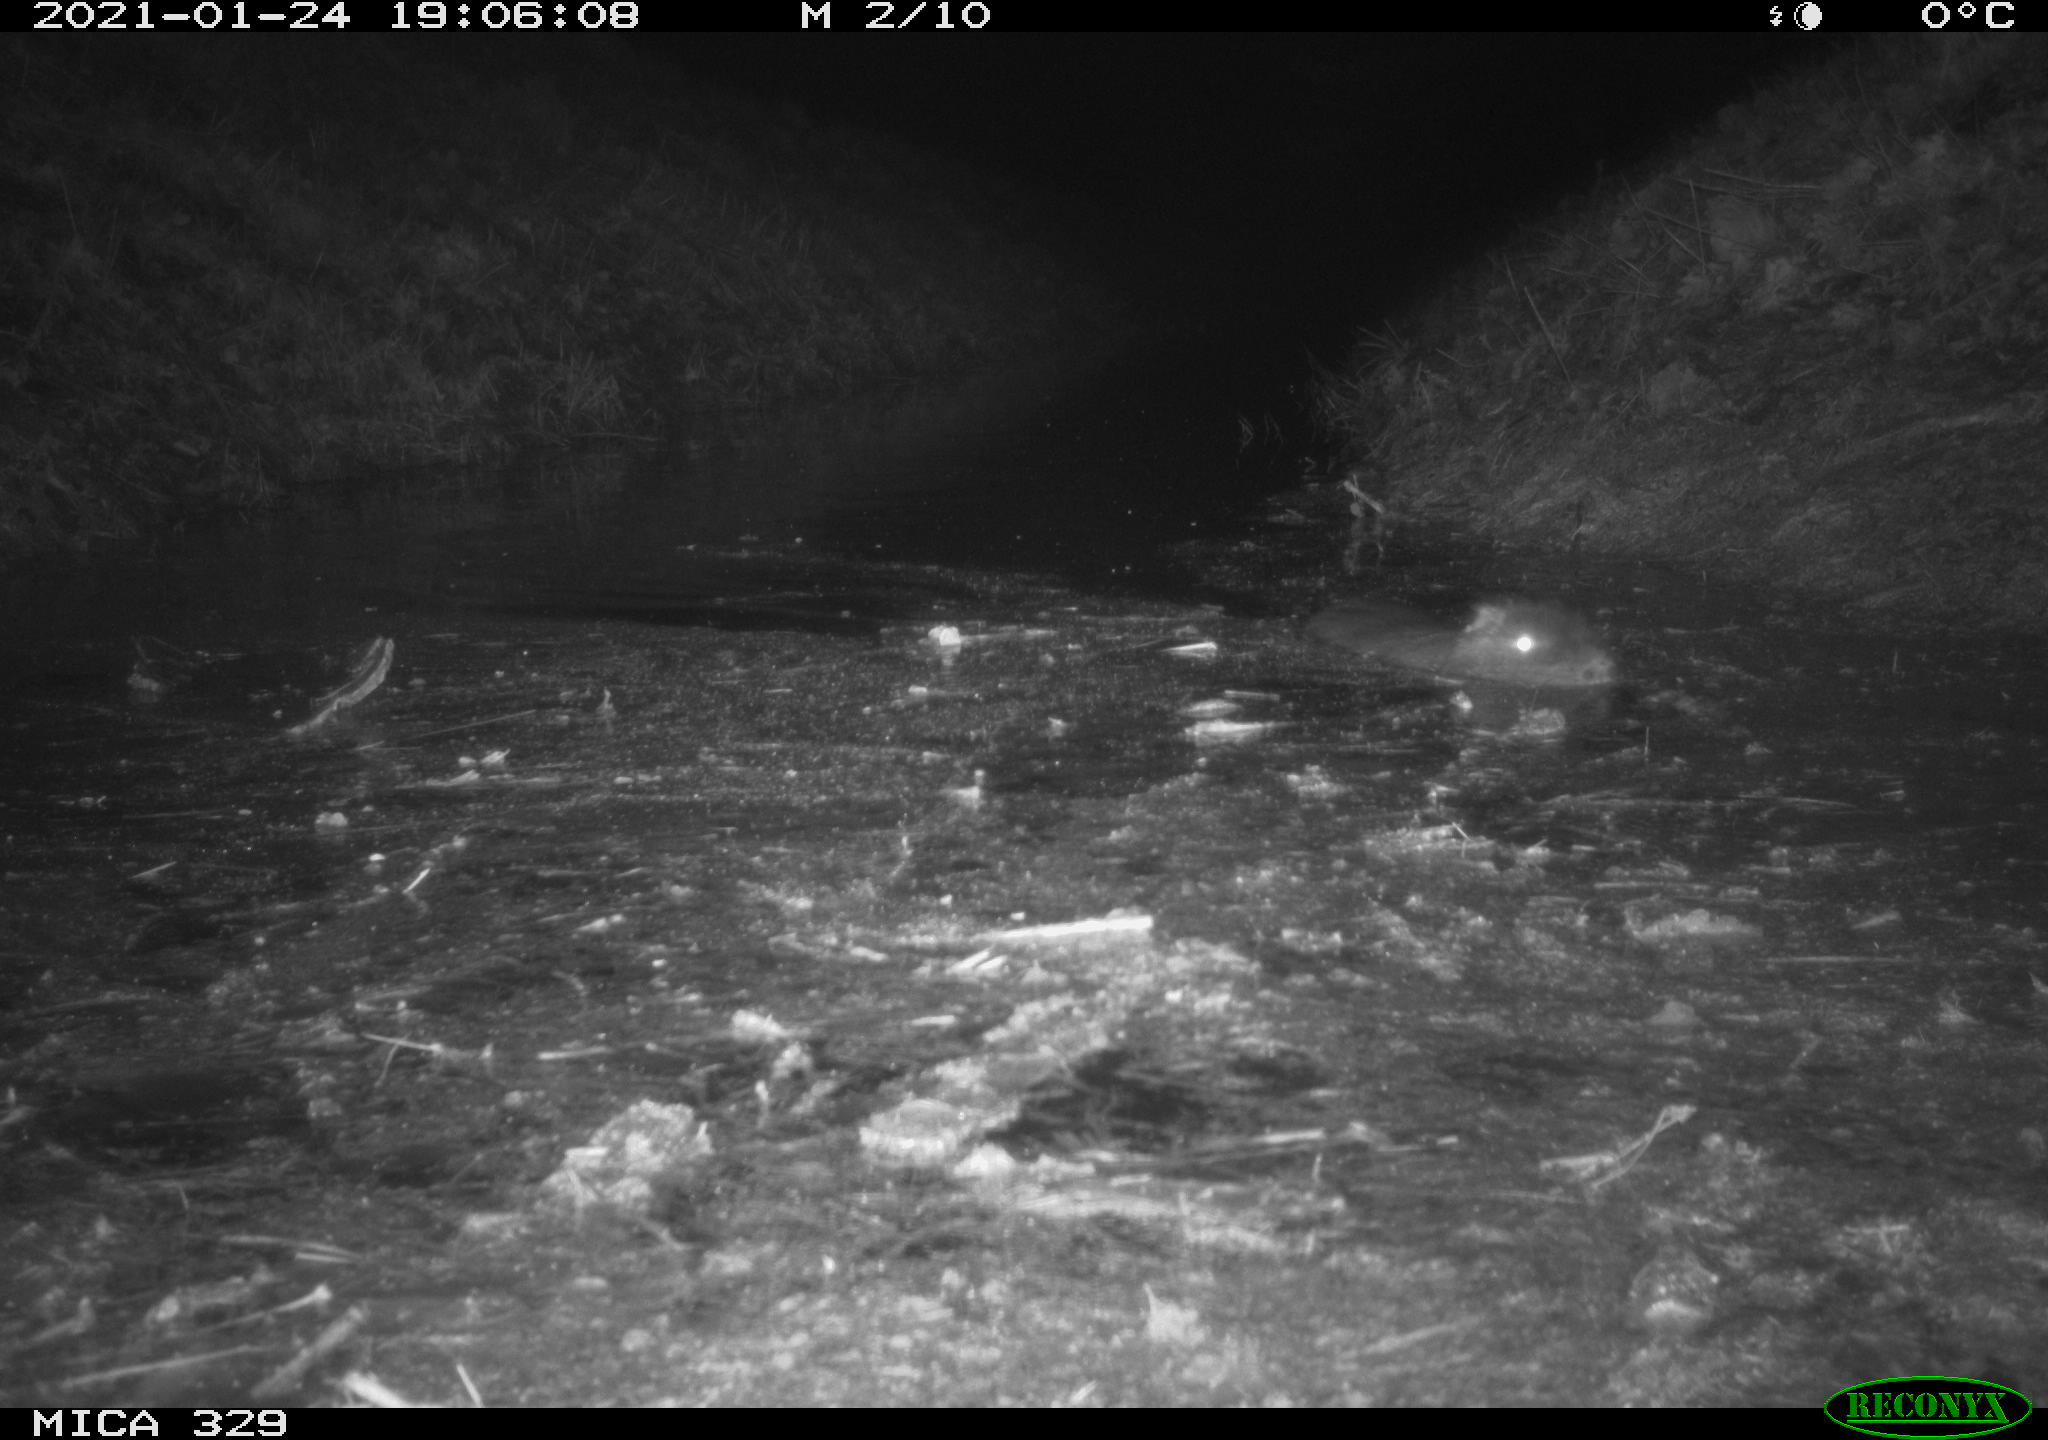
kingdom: Animalia
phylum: Chordata
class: Mammalia
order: Rodentia
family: Myocastoridae
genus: Myocastor
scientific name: Myocastor coypus
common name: Coypu
